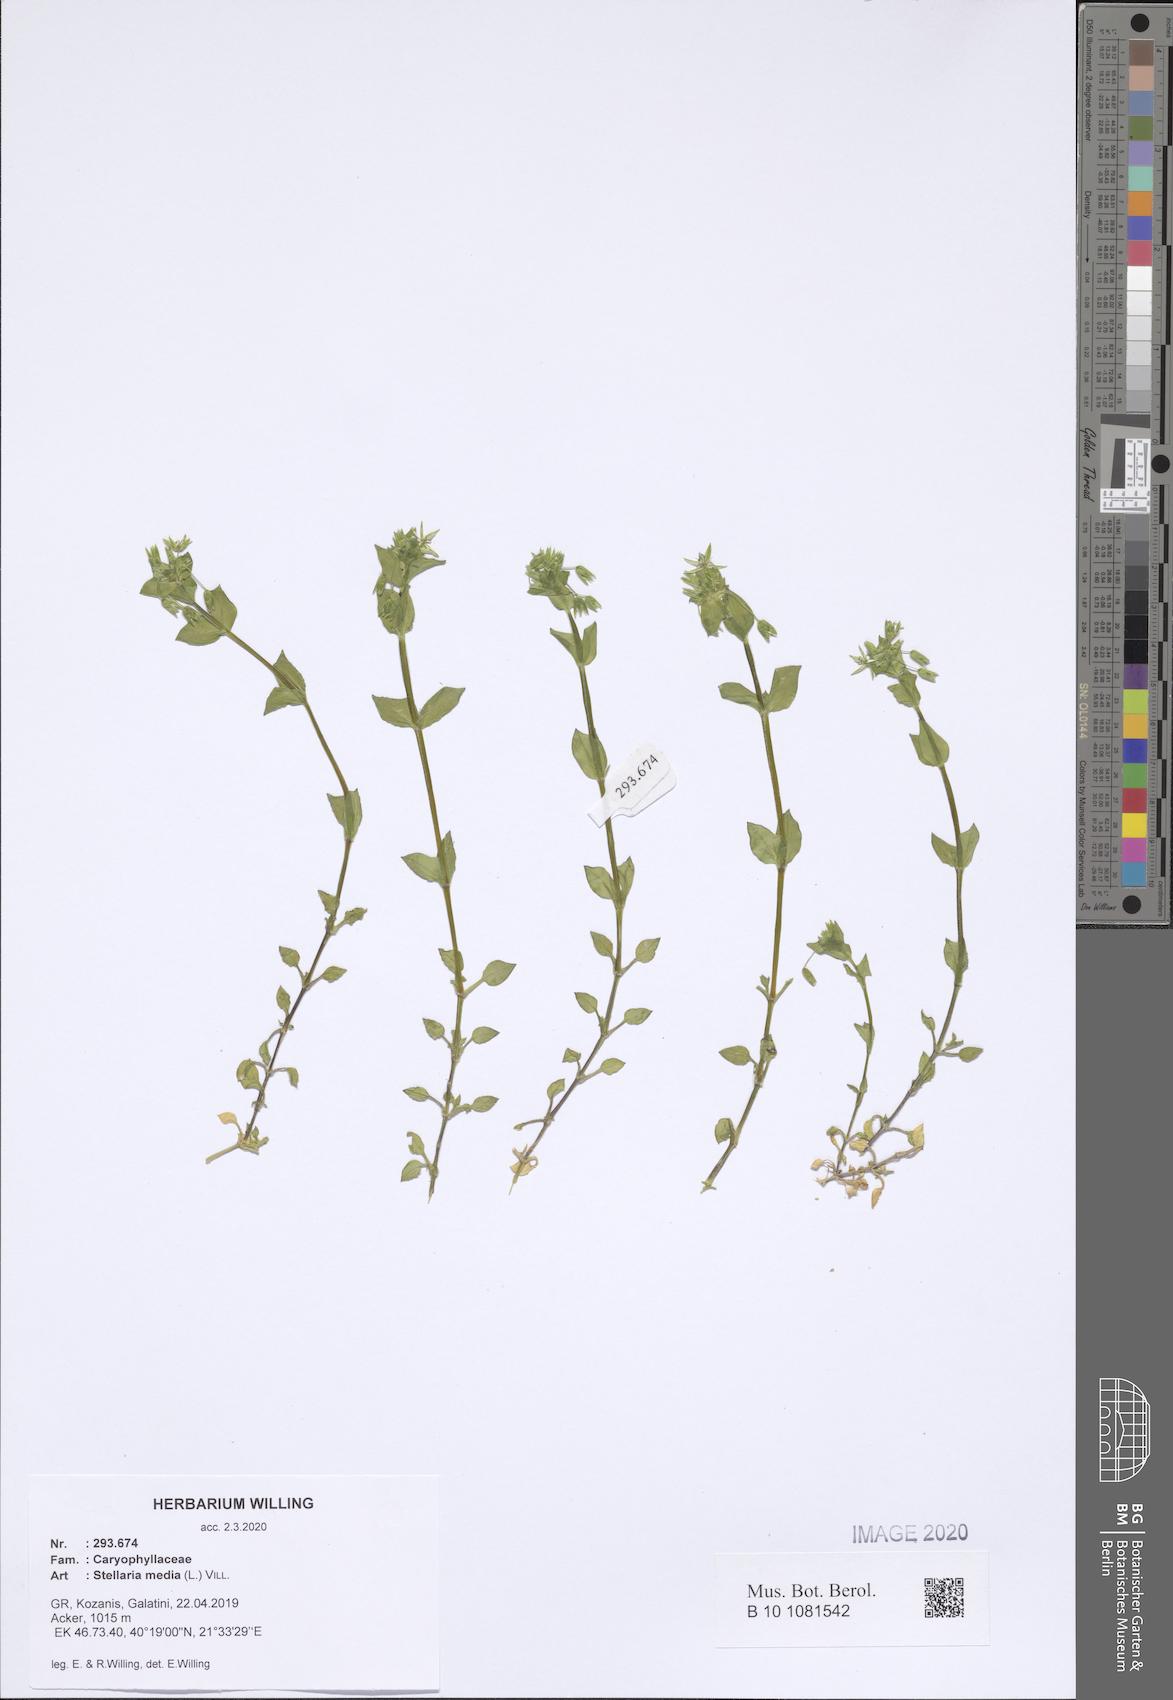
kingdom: Plantae
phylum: Tracheophyta
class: Magnoliopsida
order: Caryophyllales
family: Caryophyllaceae
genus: Stellaria
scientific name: Stellaria media
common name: Common chickweed
